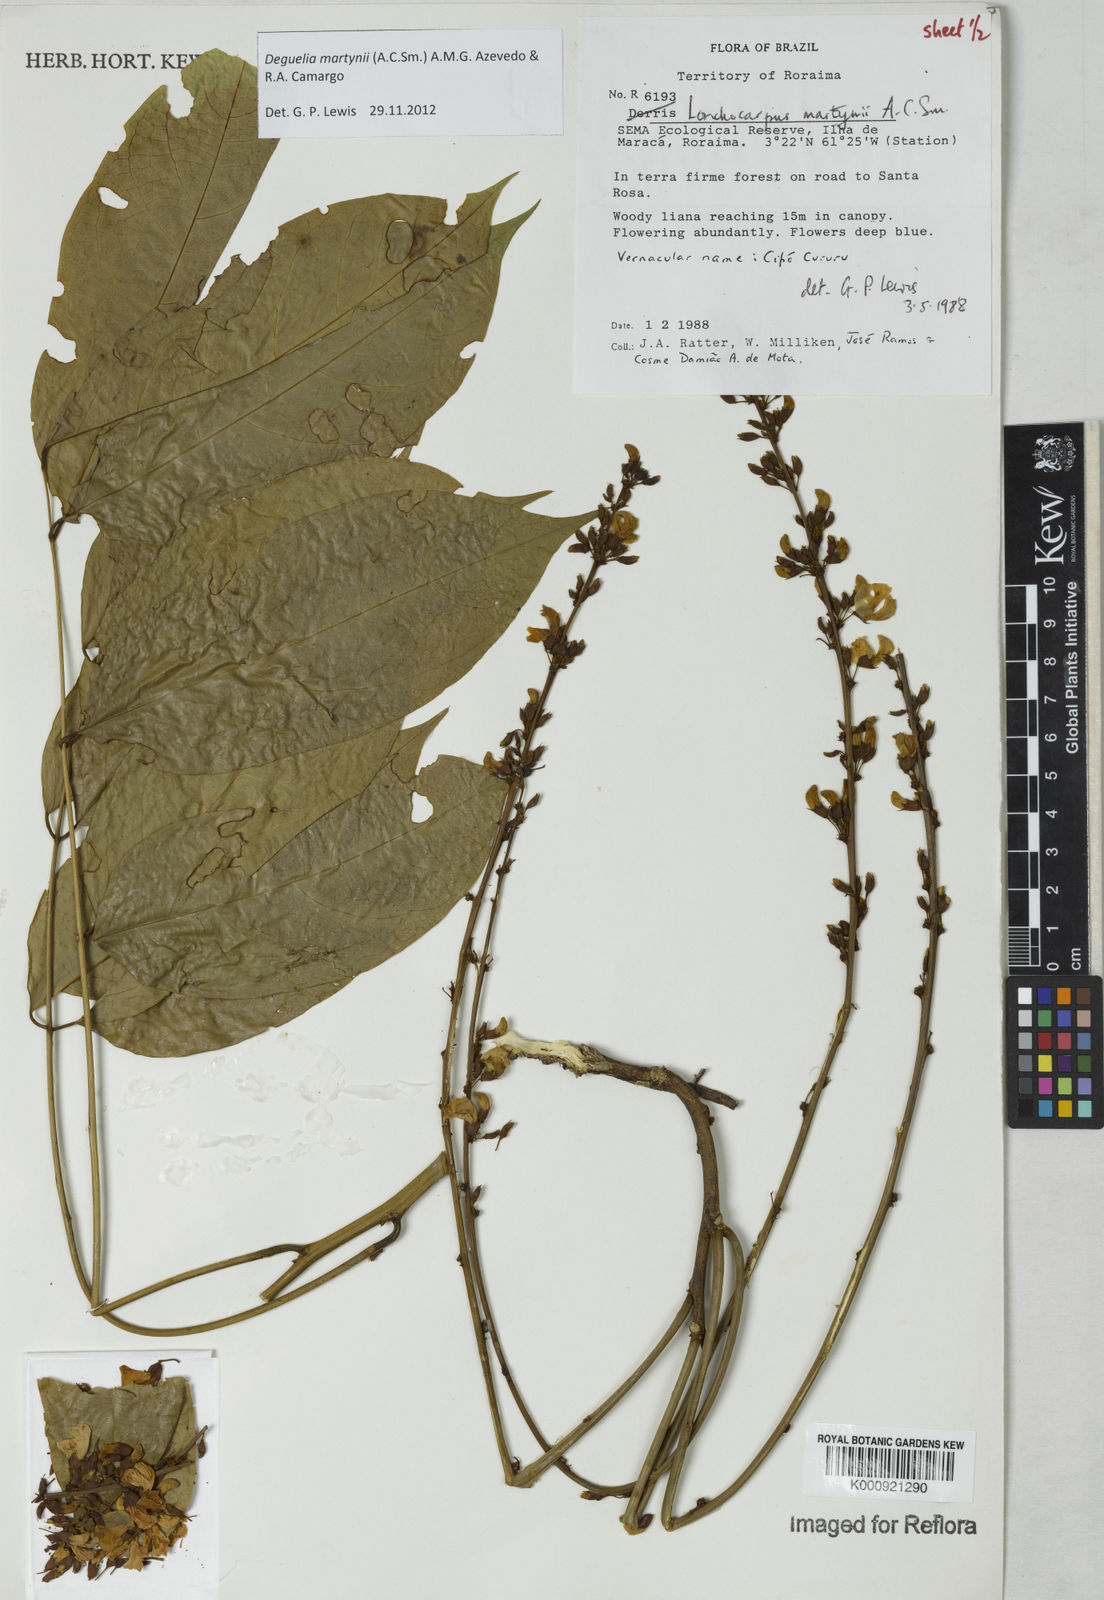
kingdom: Plantae
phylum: Tracheophyta
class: Magnoliopsida
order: Fabales
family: Fabaceae
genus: Deguelia
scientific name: Deguelia
